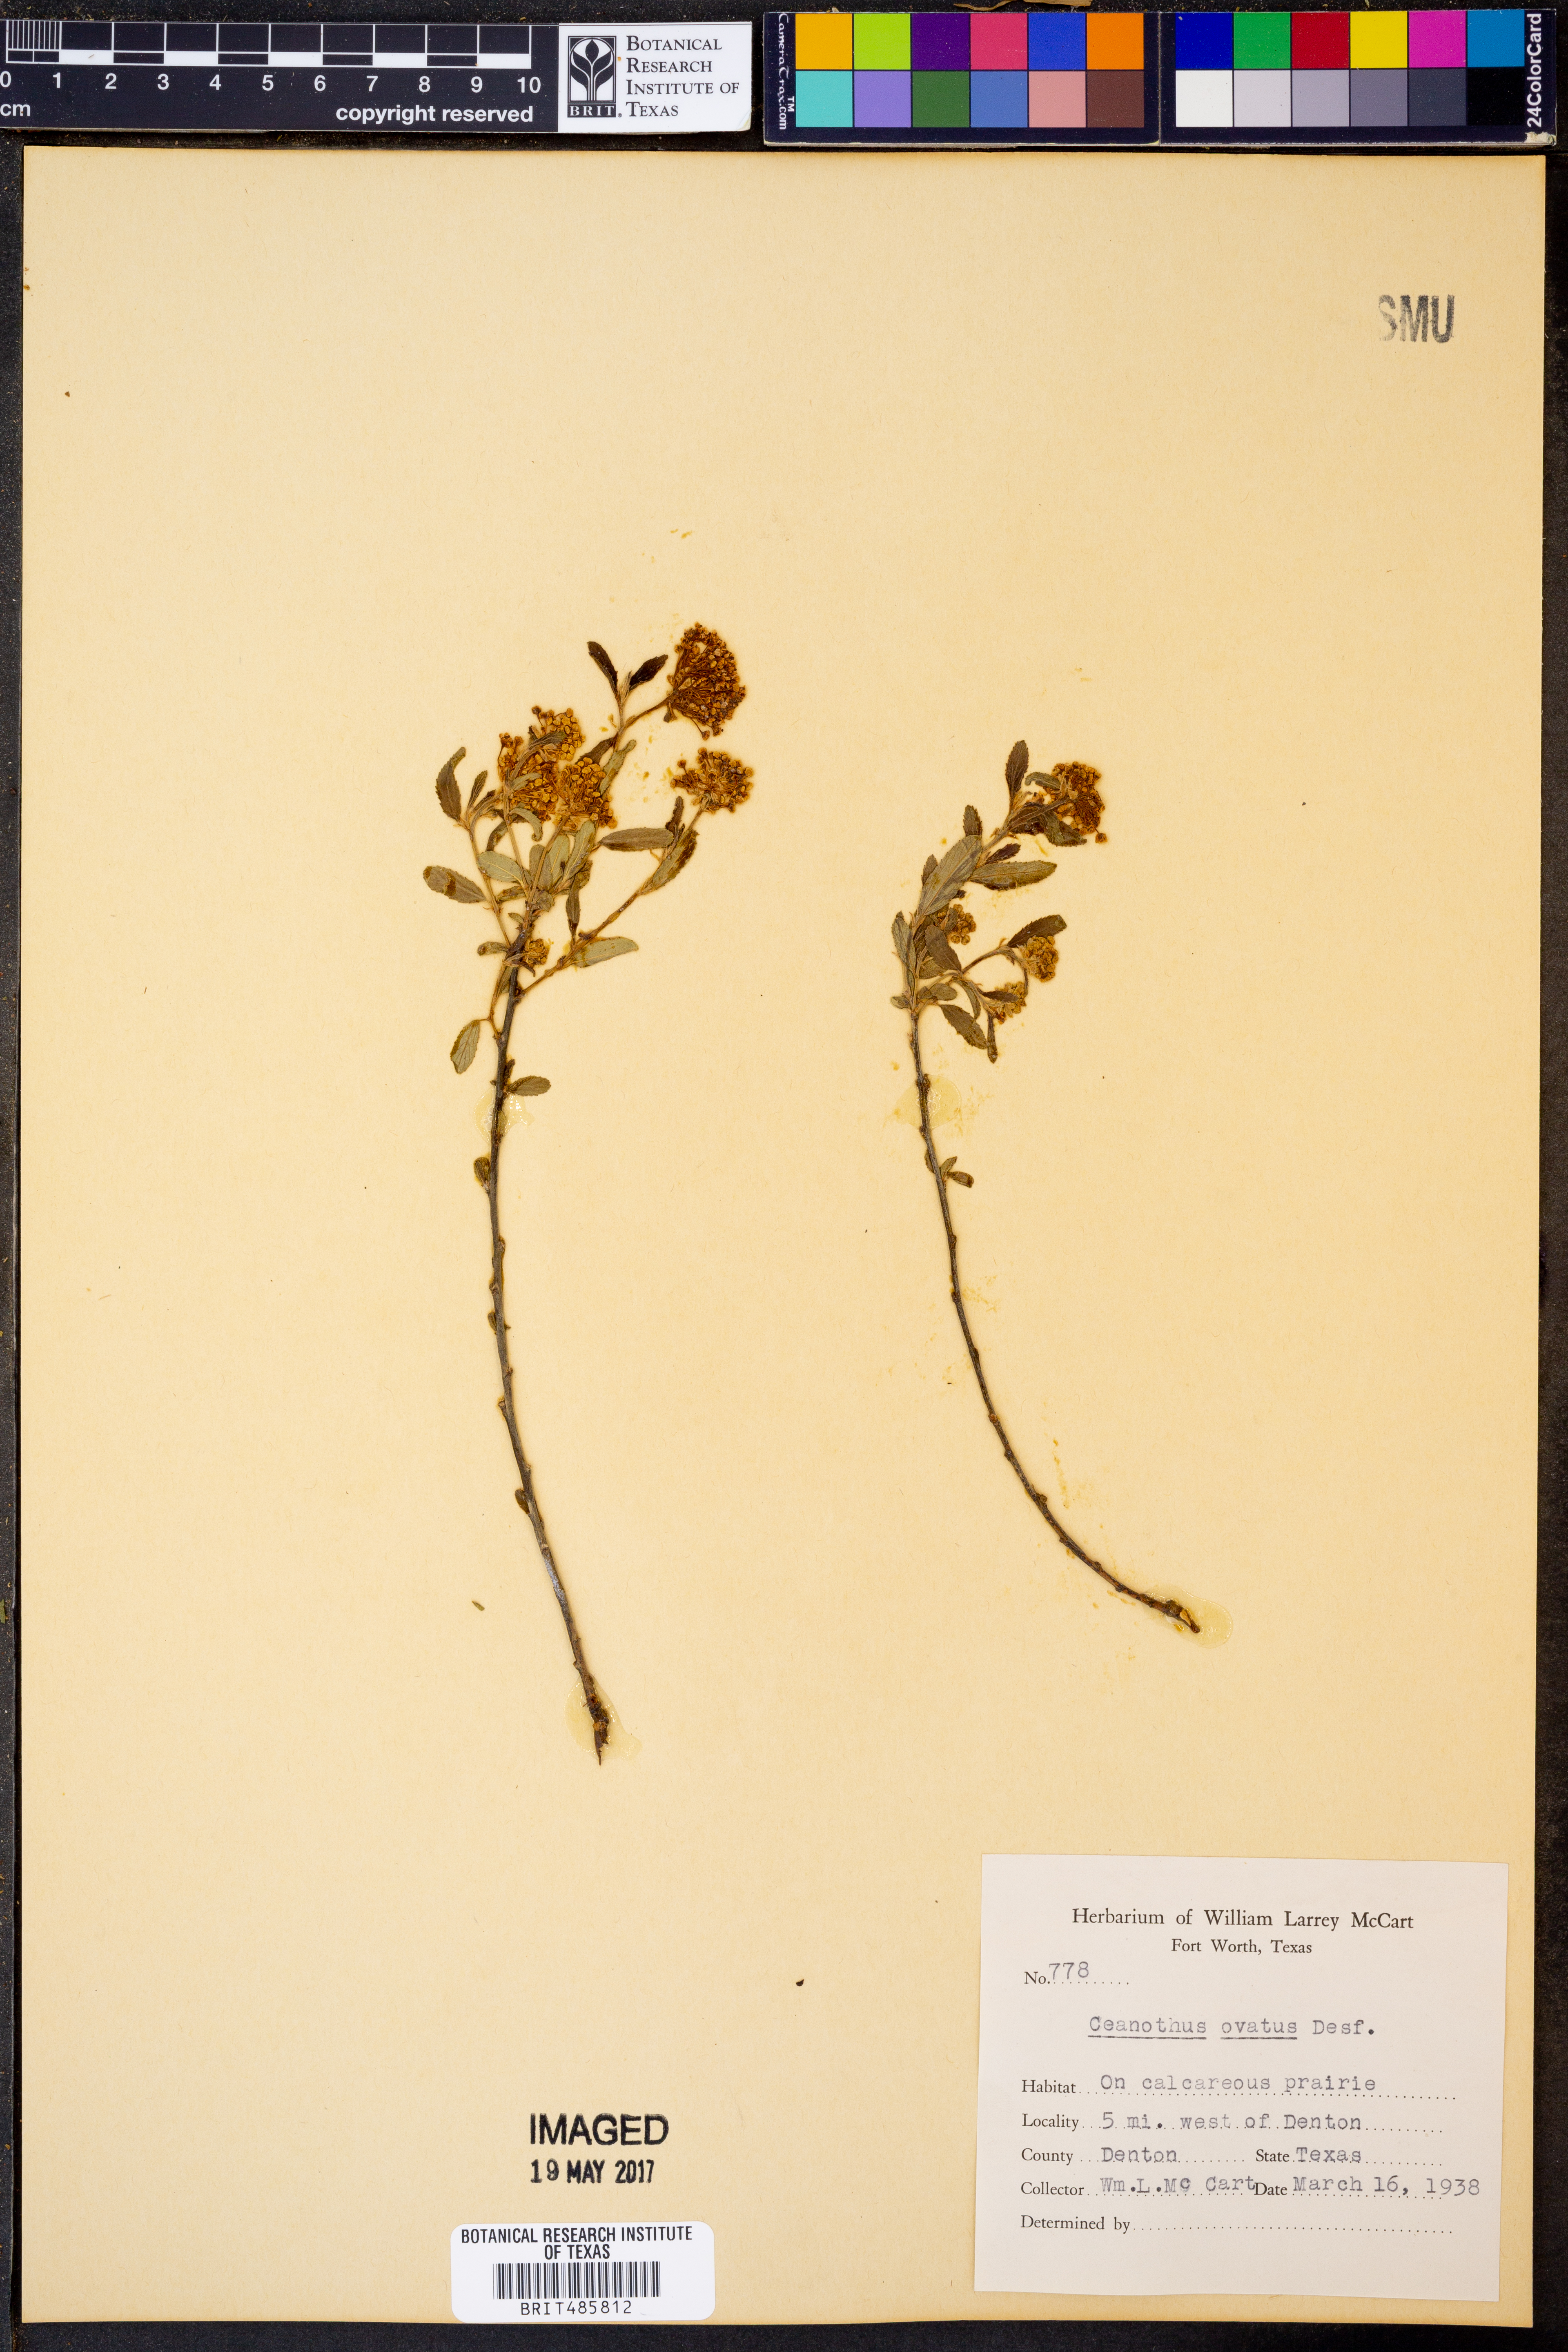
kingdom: Plantae
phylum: Tracheophyta
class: Magnoliopsida
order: Rosales
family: Rhamnaceae
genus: Ceanothus
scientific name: Ceanothus herbaceus
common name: Inland ceanothus
